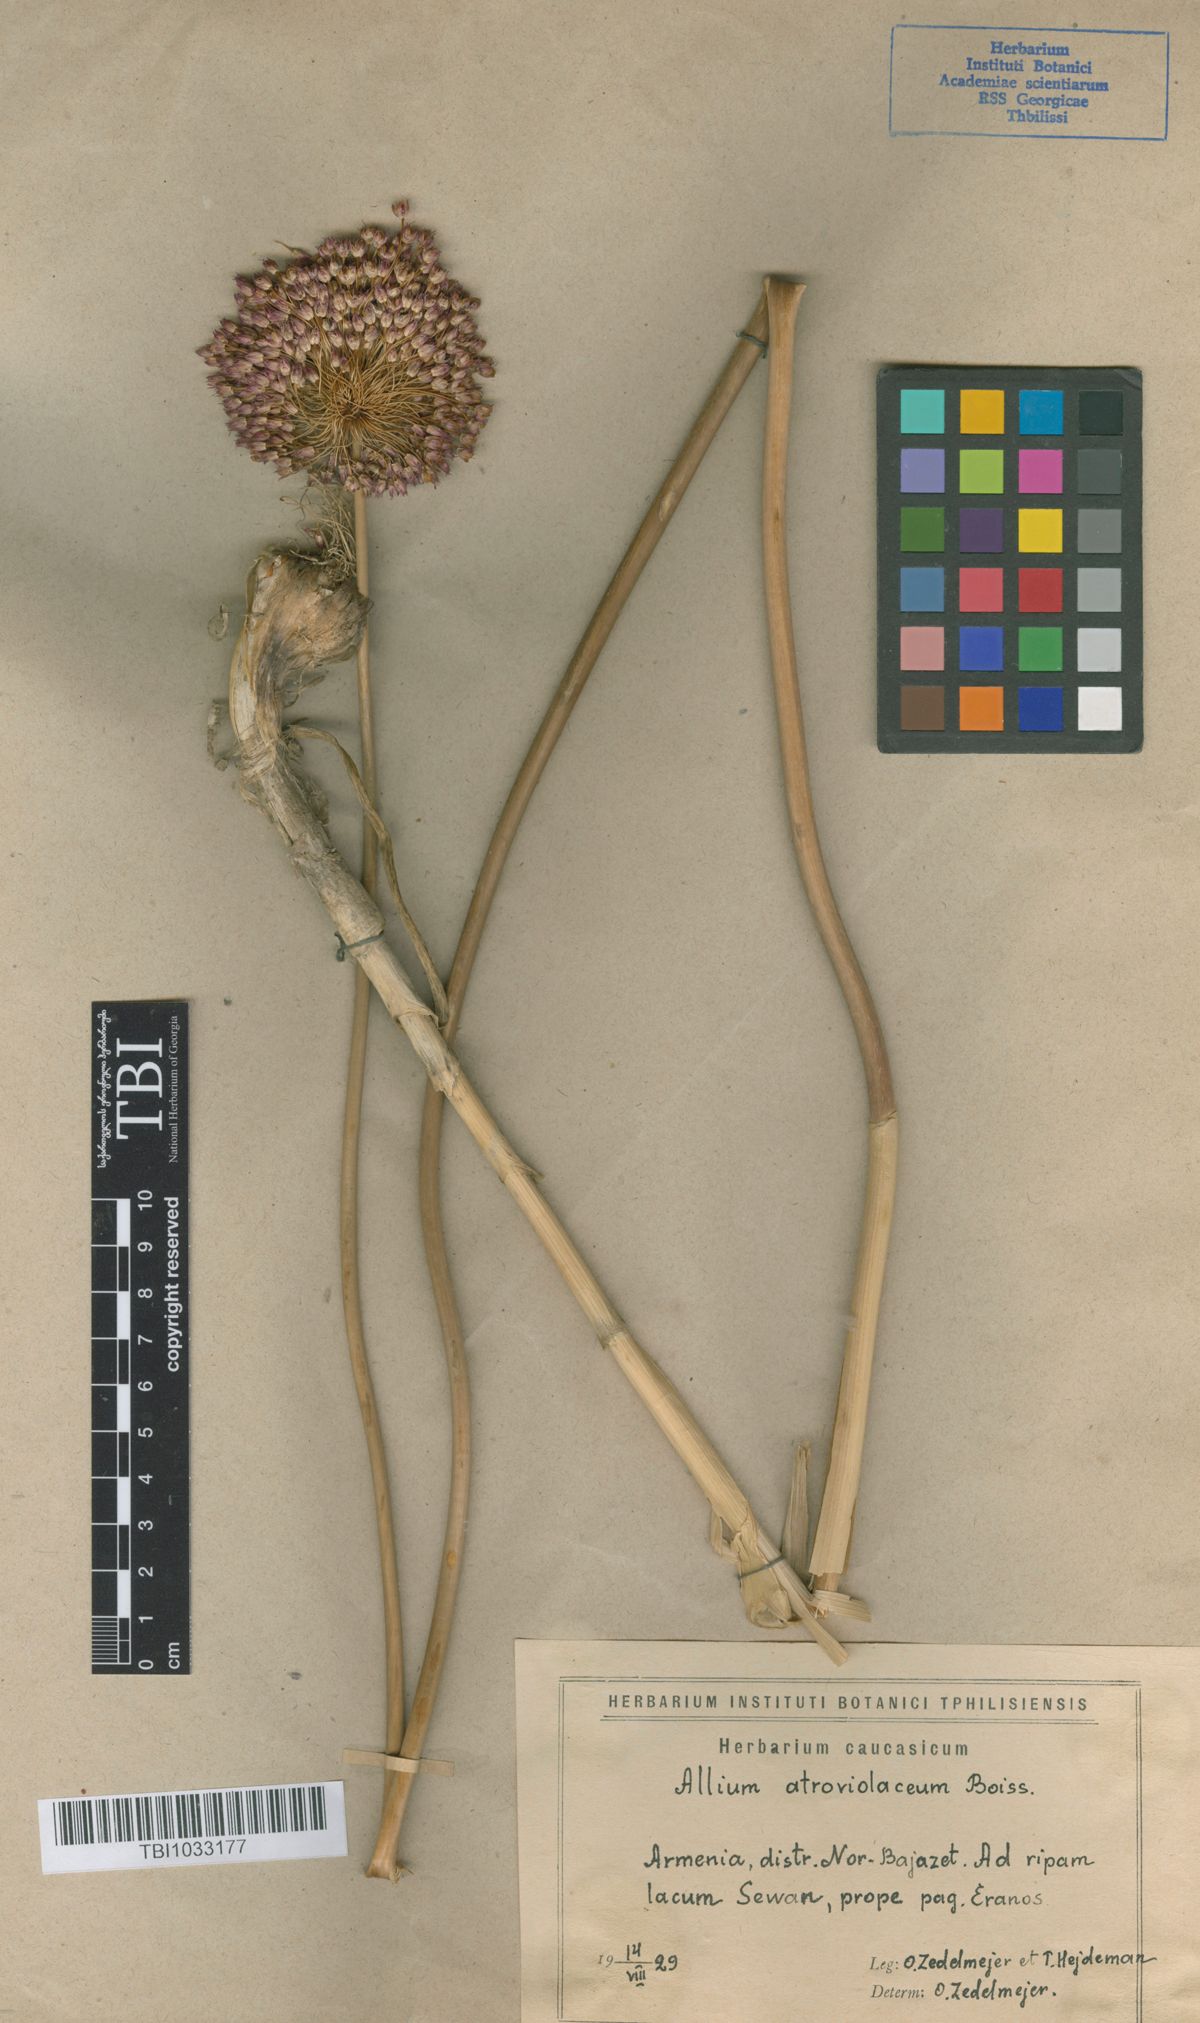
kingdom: Plantae
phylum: Tracheophyta
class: Liliopsida
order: Asparagales
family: Amaryllidaceae
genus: Allium
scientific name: Allium atroviolaceum
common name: Broadleaf wild leek
